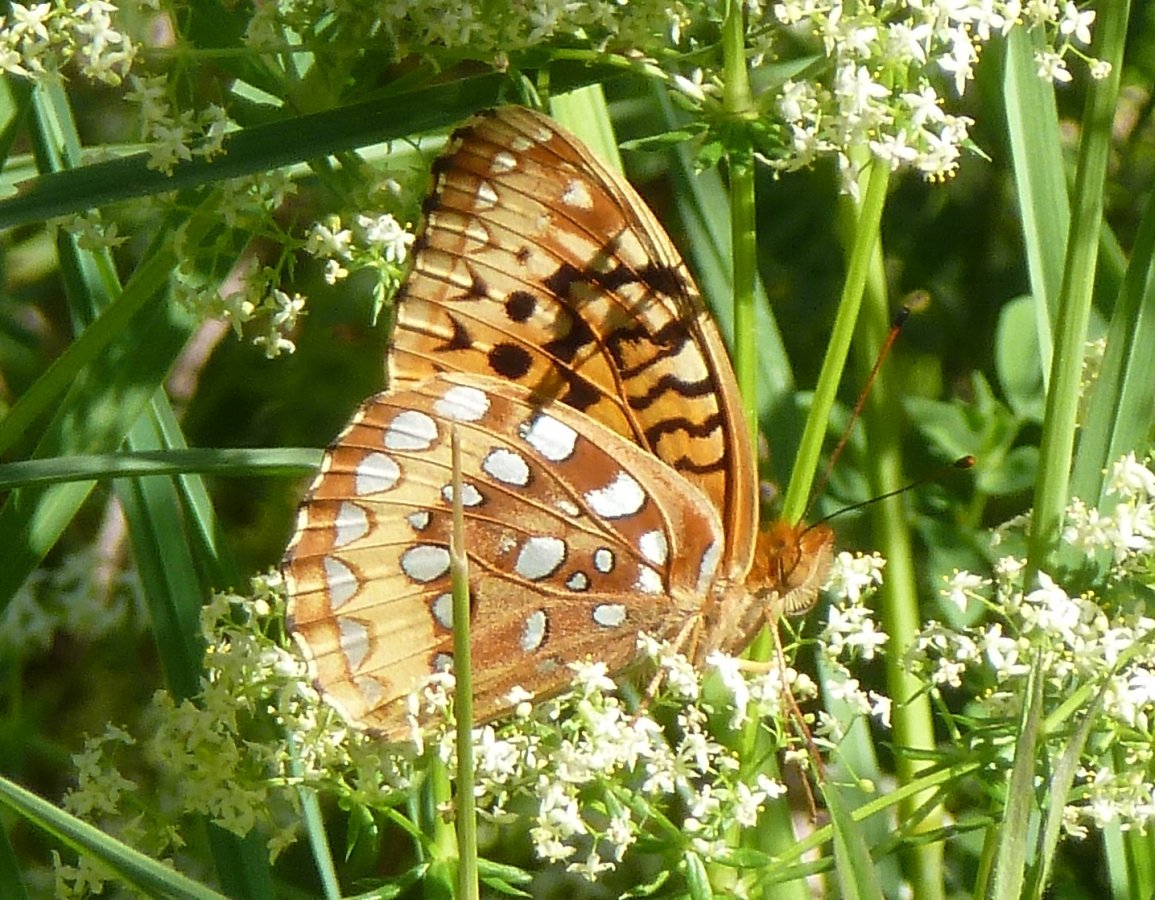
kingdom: Animalia
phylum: Arthropoda
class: Insecta
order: Lepidoptera
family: Nymphalidae
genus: Speyeria
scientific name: Speyeria cybele
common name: Great Spangled Fritillary
